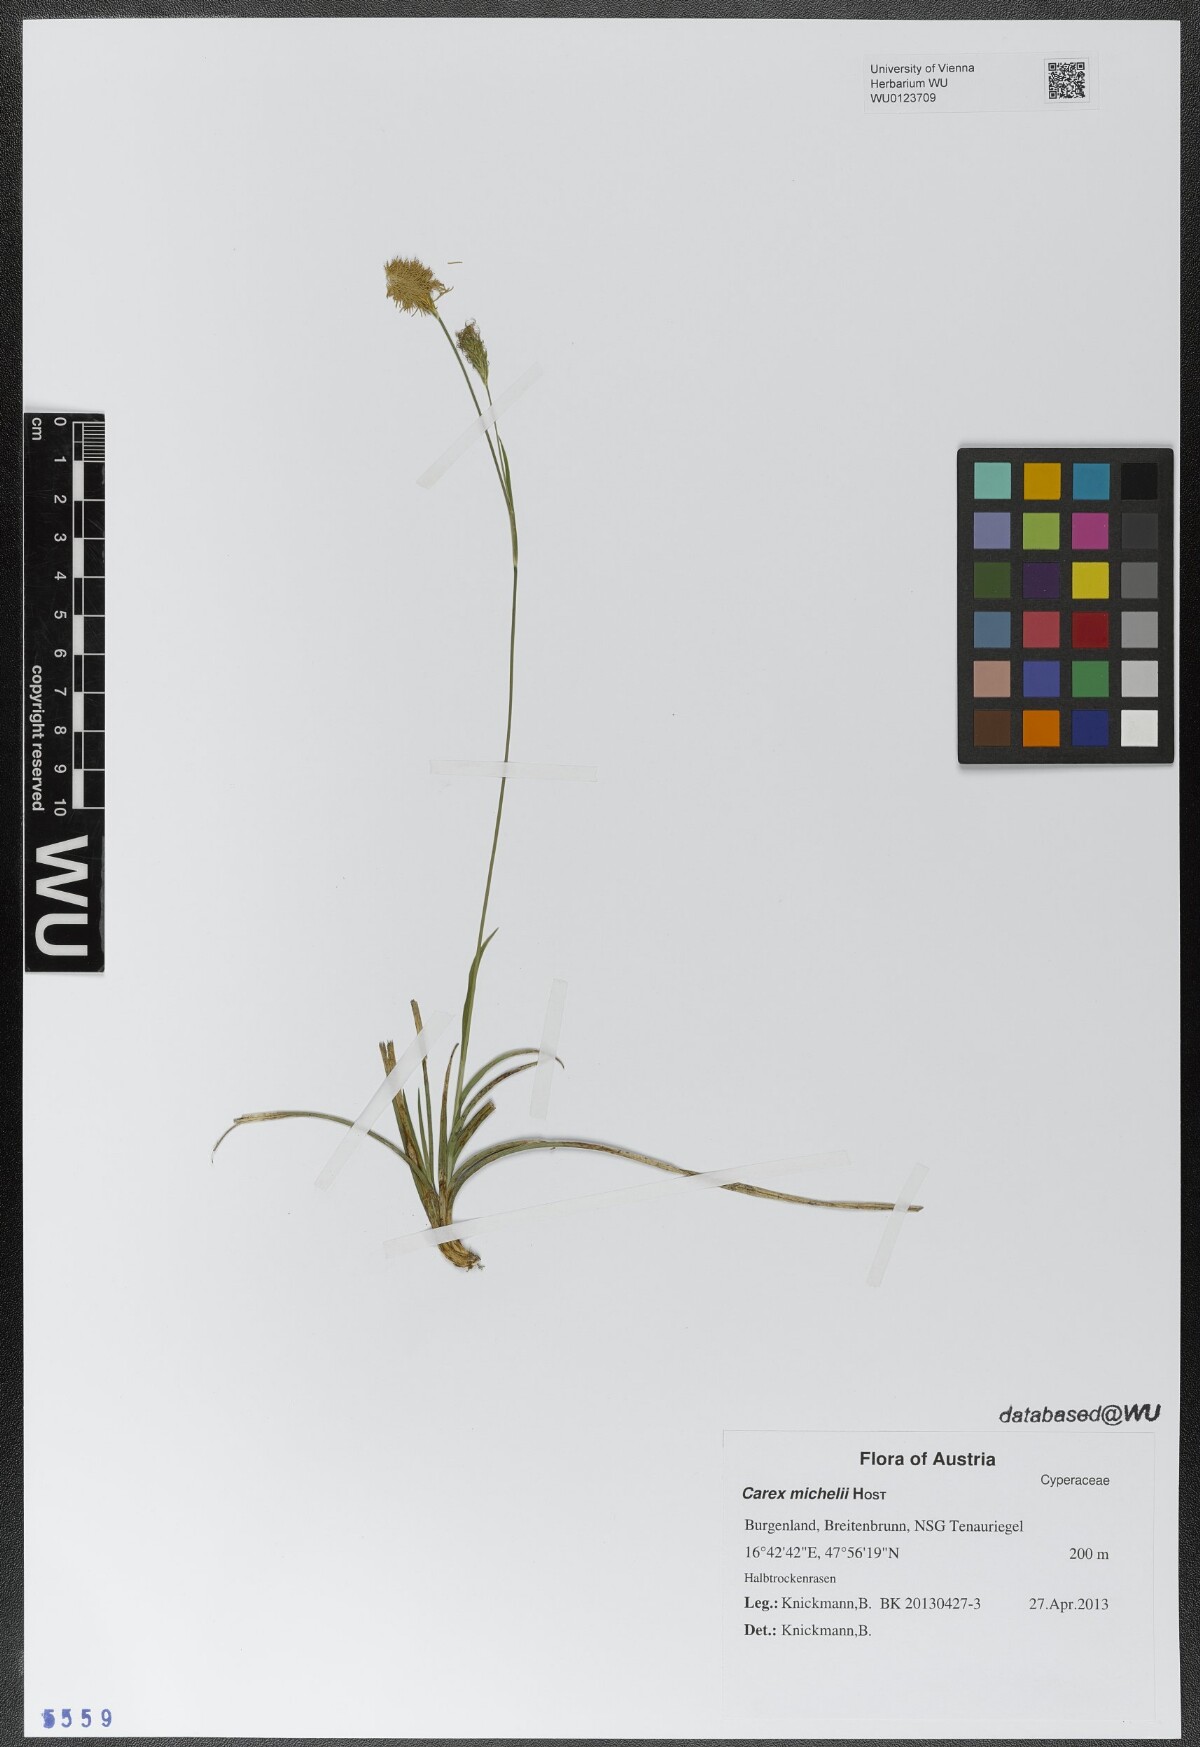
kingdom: Plantae
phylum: Tracheophyta
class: Liliopsida
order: Poales
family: Cyperaceae
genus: Carex
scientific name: Carex michelii
